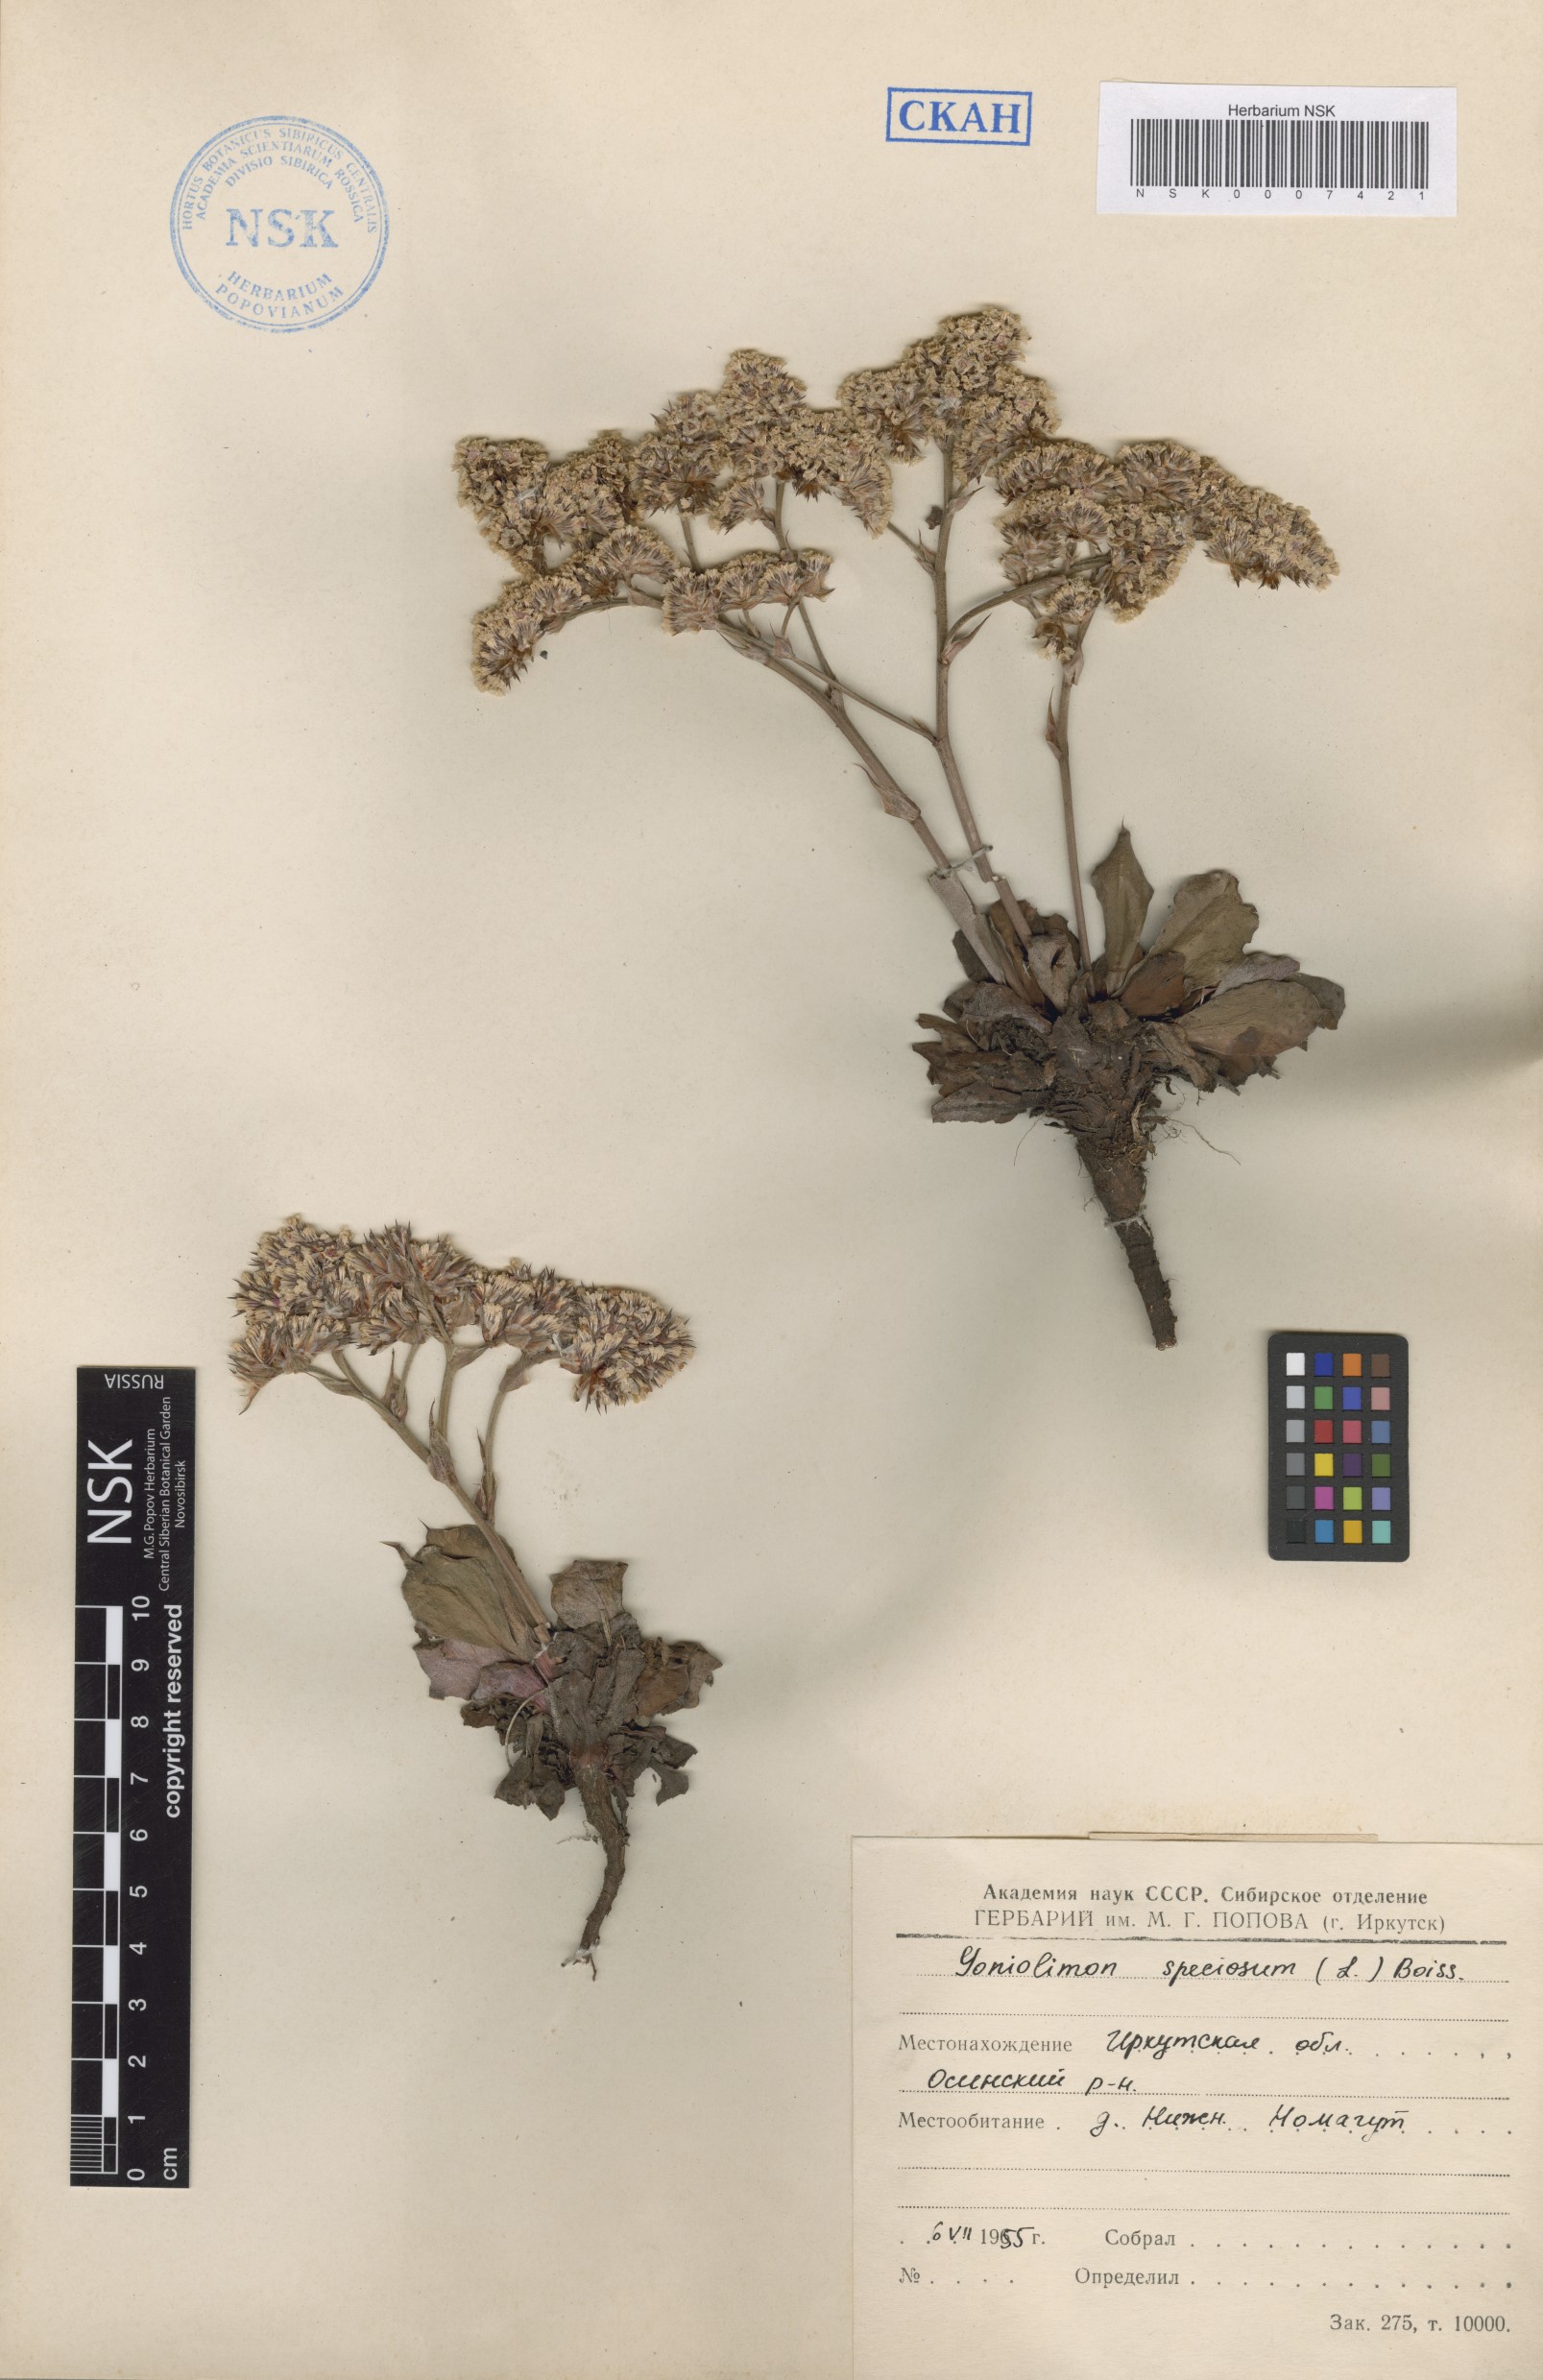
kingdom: Plantae
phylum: Tracheophyta
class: Magnoliopsida
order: Caryophyllales
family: Plumbaginaceae
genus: Goniolimon
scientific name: Goniolimon speciosum
